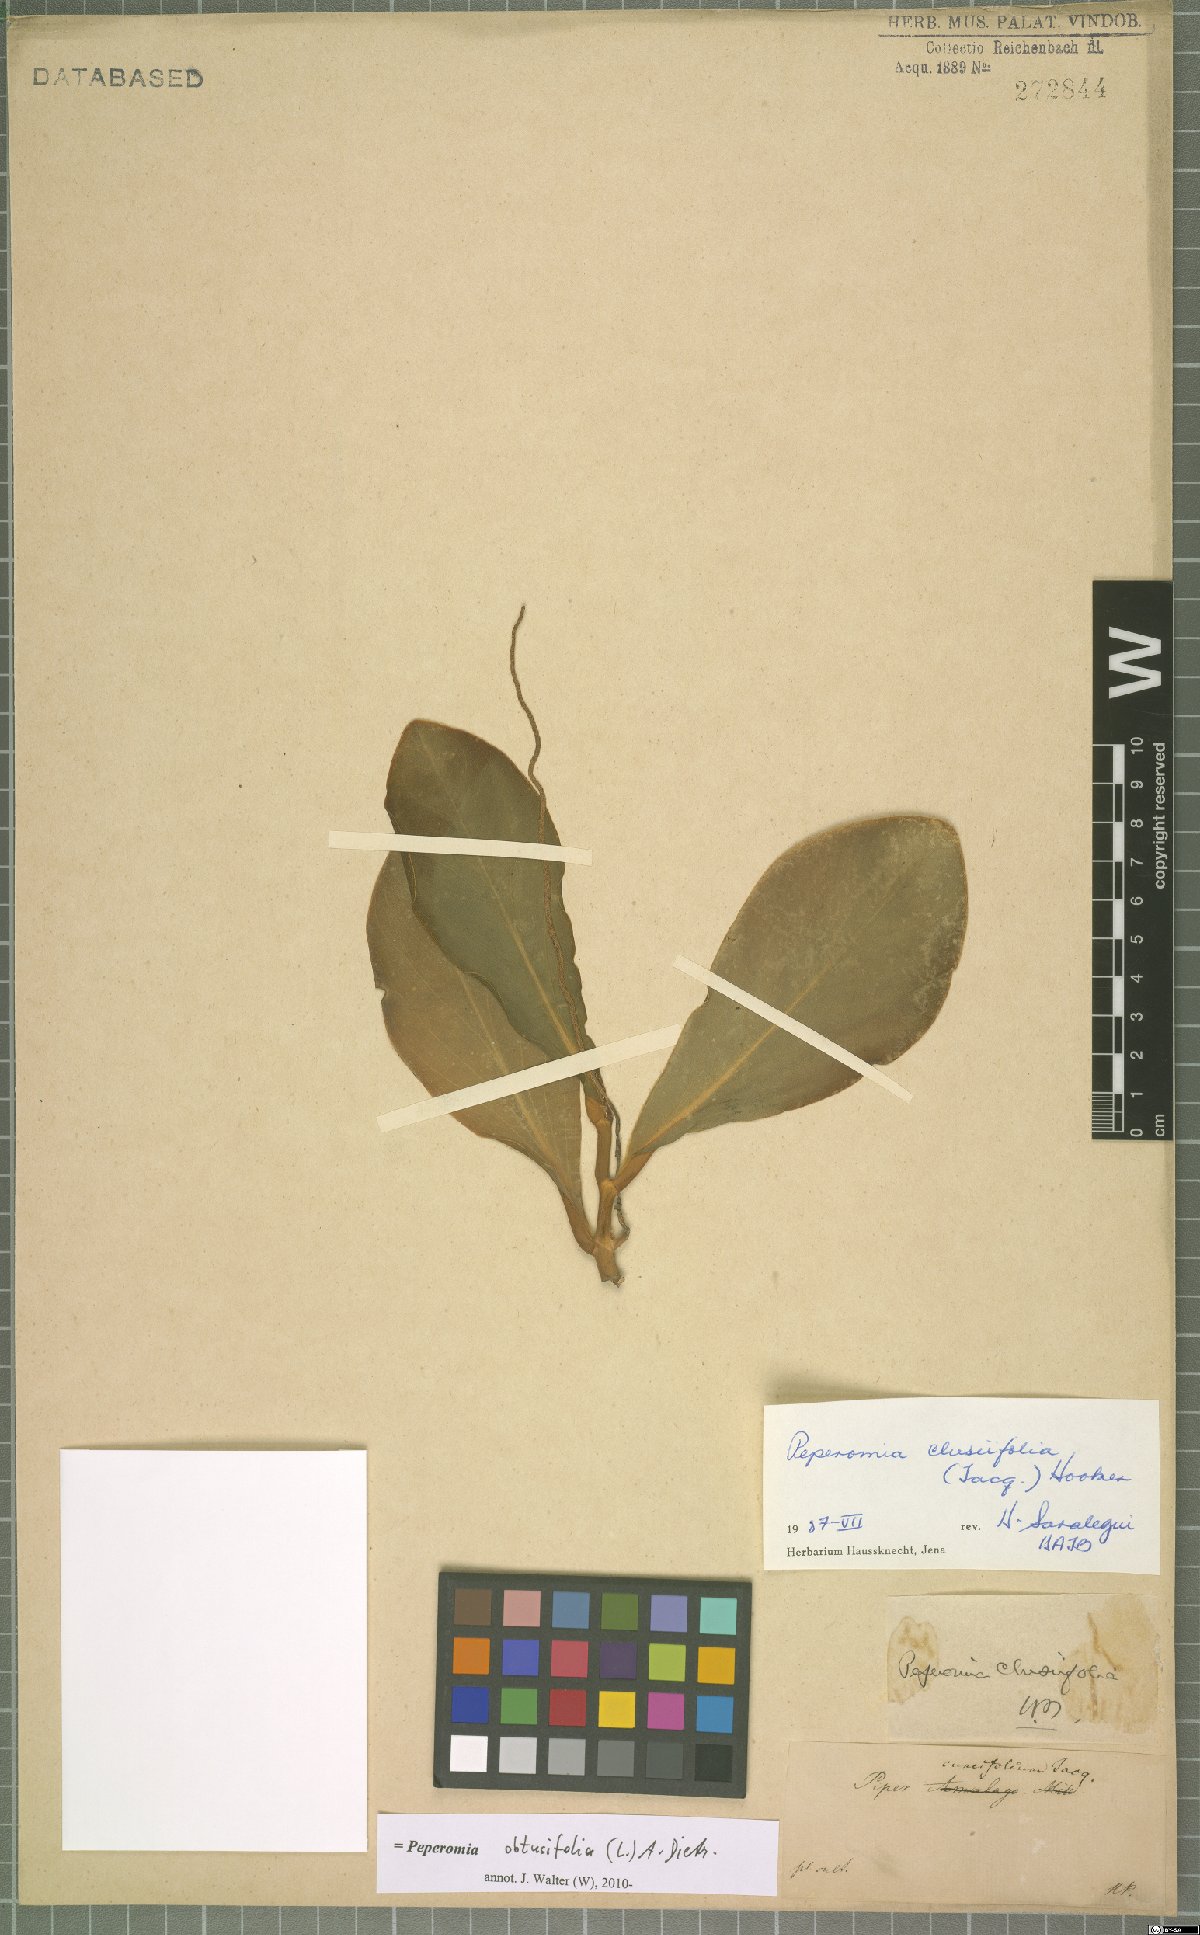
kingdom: Plantae
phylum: Tracheophyta
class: Magnoliopsida
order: Piperales
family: Piperaceae
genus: Peperomia
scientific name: Peperomia obtusifolia
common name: Baby rubberplant
